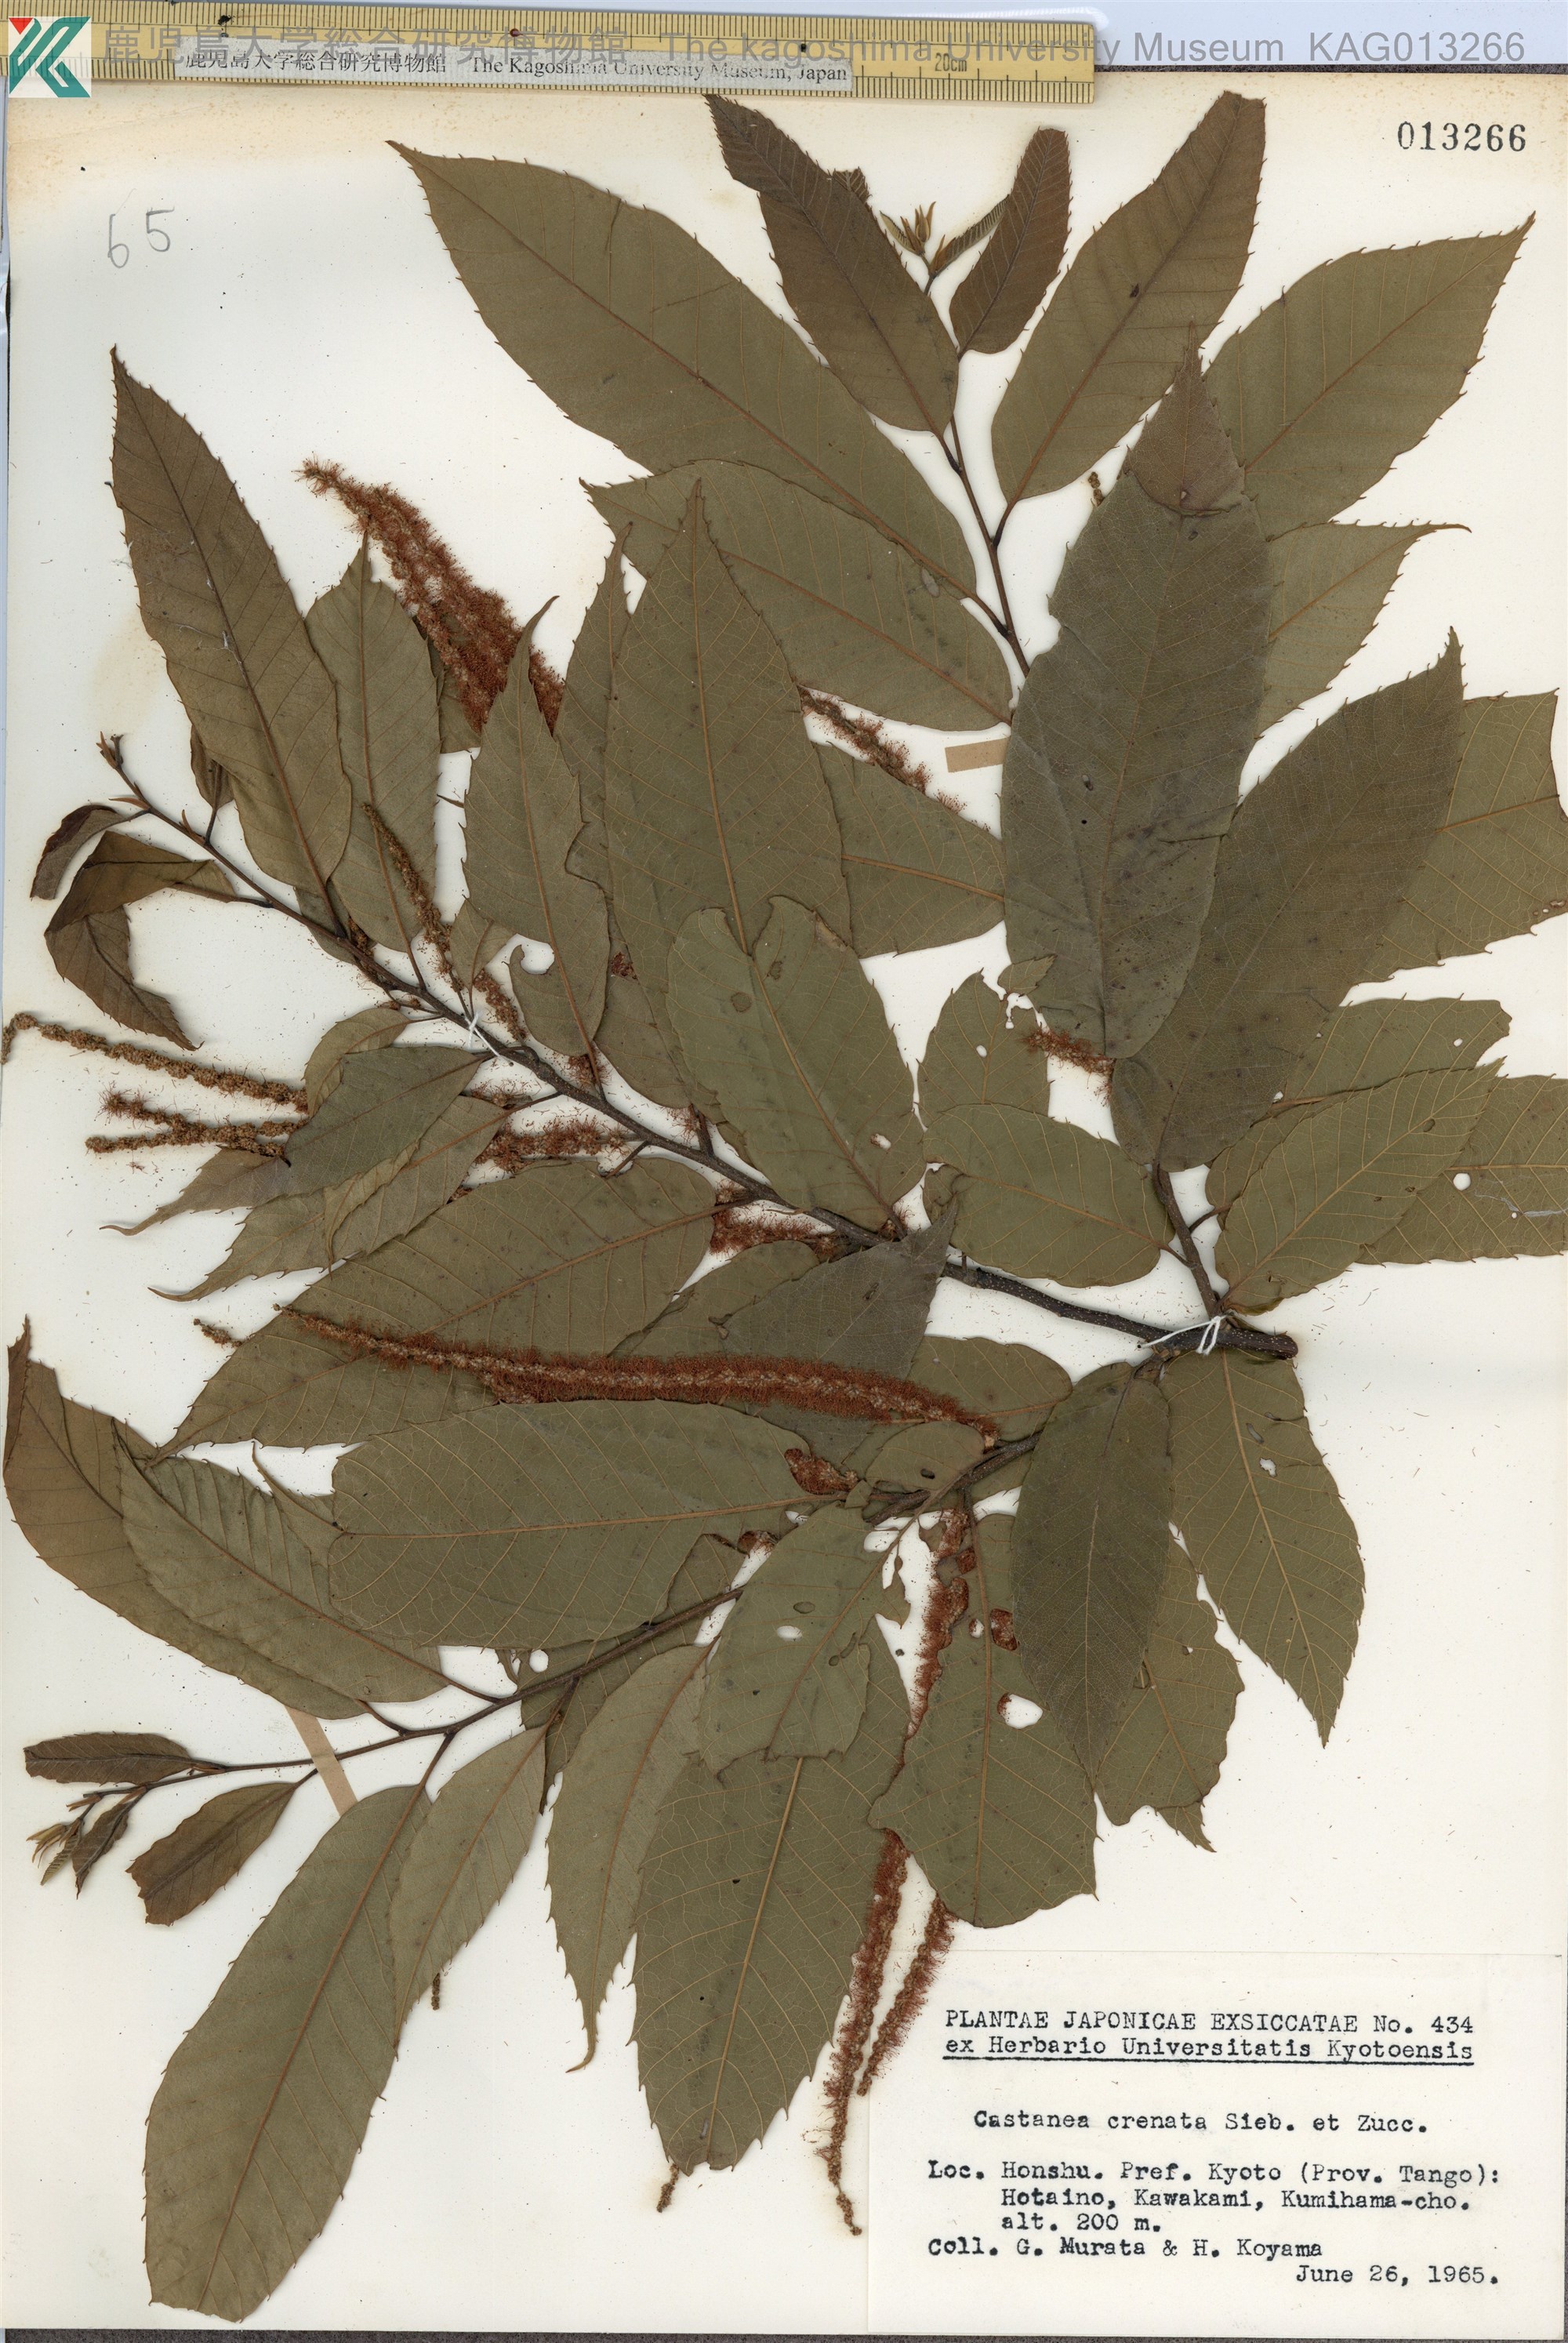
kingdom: Plantae
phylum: Tracheophyta
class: Magnoliopsida
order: Fagales
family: Fagaceae
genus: Castanea
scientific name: Castanea crenata
